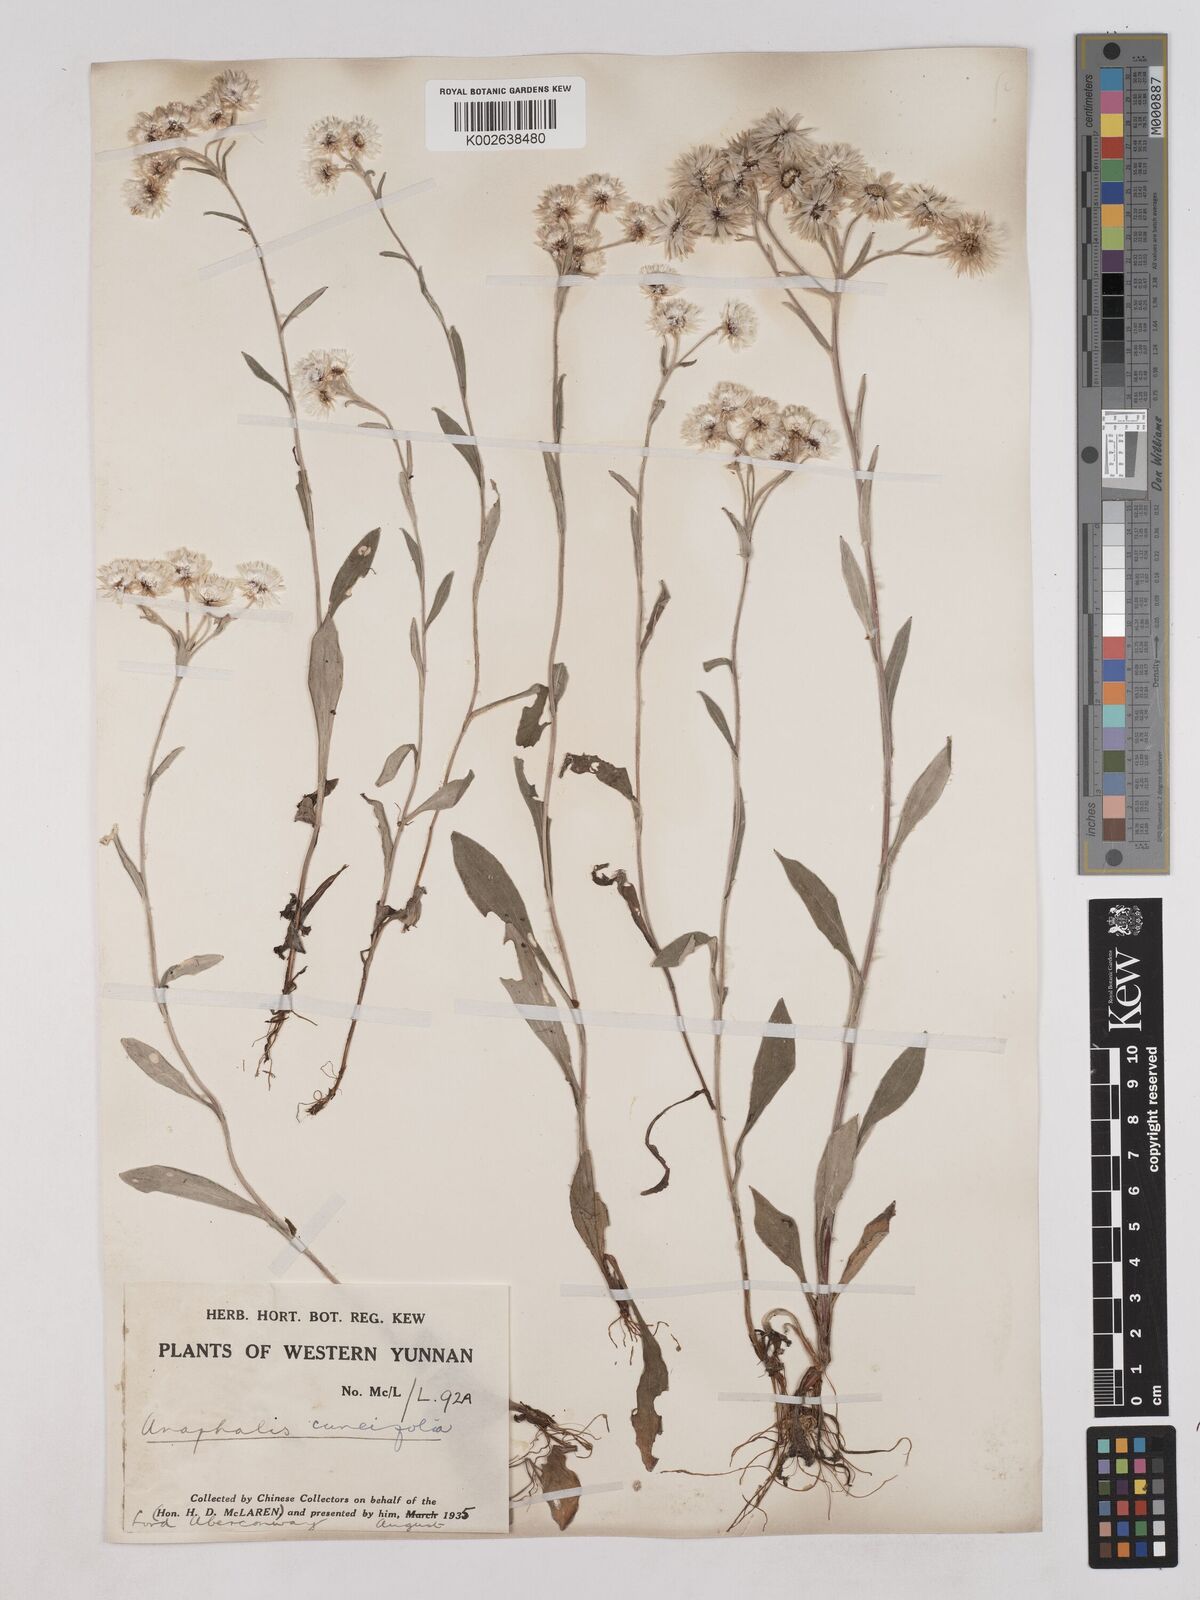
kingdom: Plantae
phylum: Tracheophyta
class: Magnoliopsida
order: Asterales
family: Asteraceae
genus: Anaphalis
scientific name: Anaphalis nepalensis
